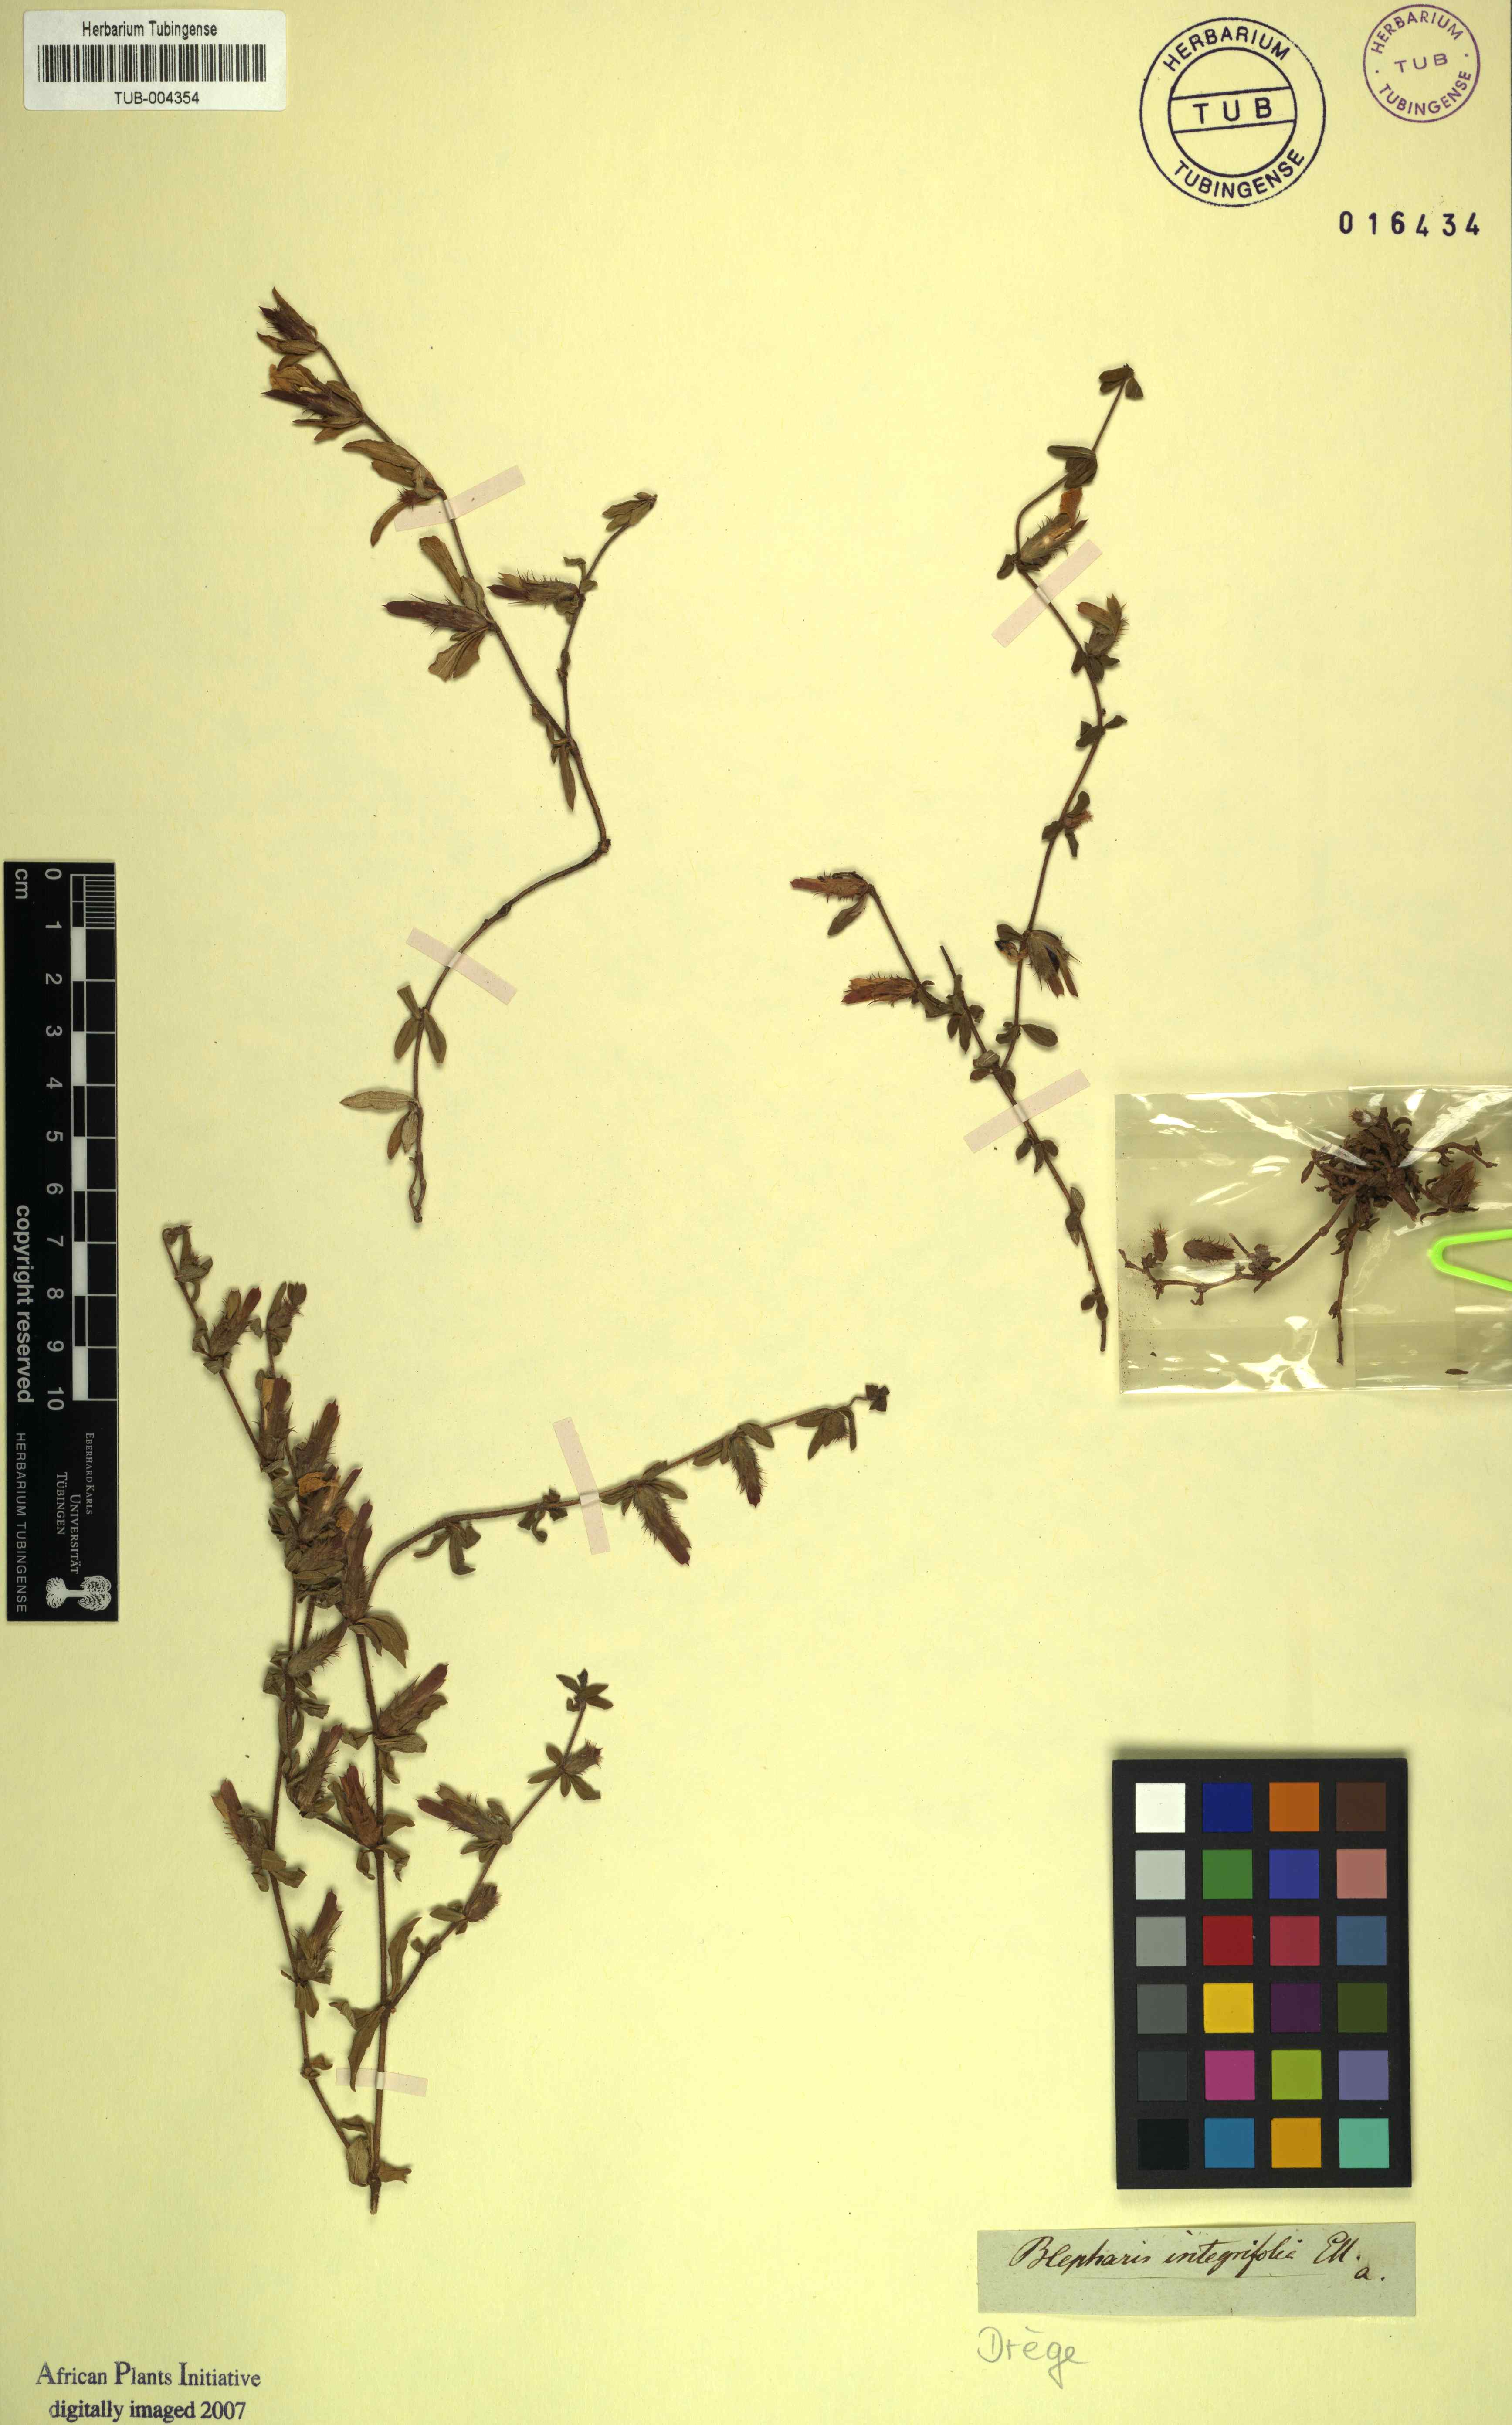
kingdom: Plantae
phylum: Tracheophyta
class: Magnoliopsida
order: Lamiales
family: Acanthaceae
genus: Blepharis
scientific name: Blepharis integrifolia
